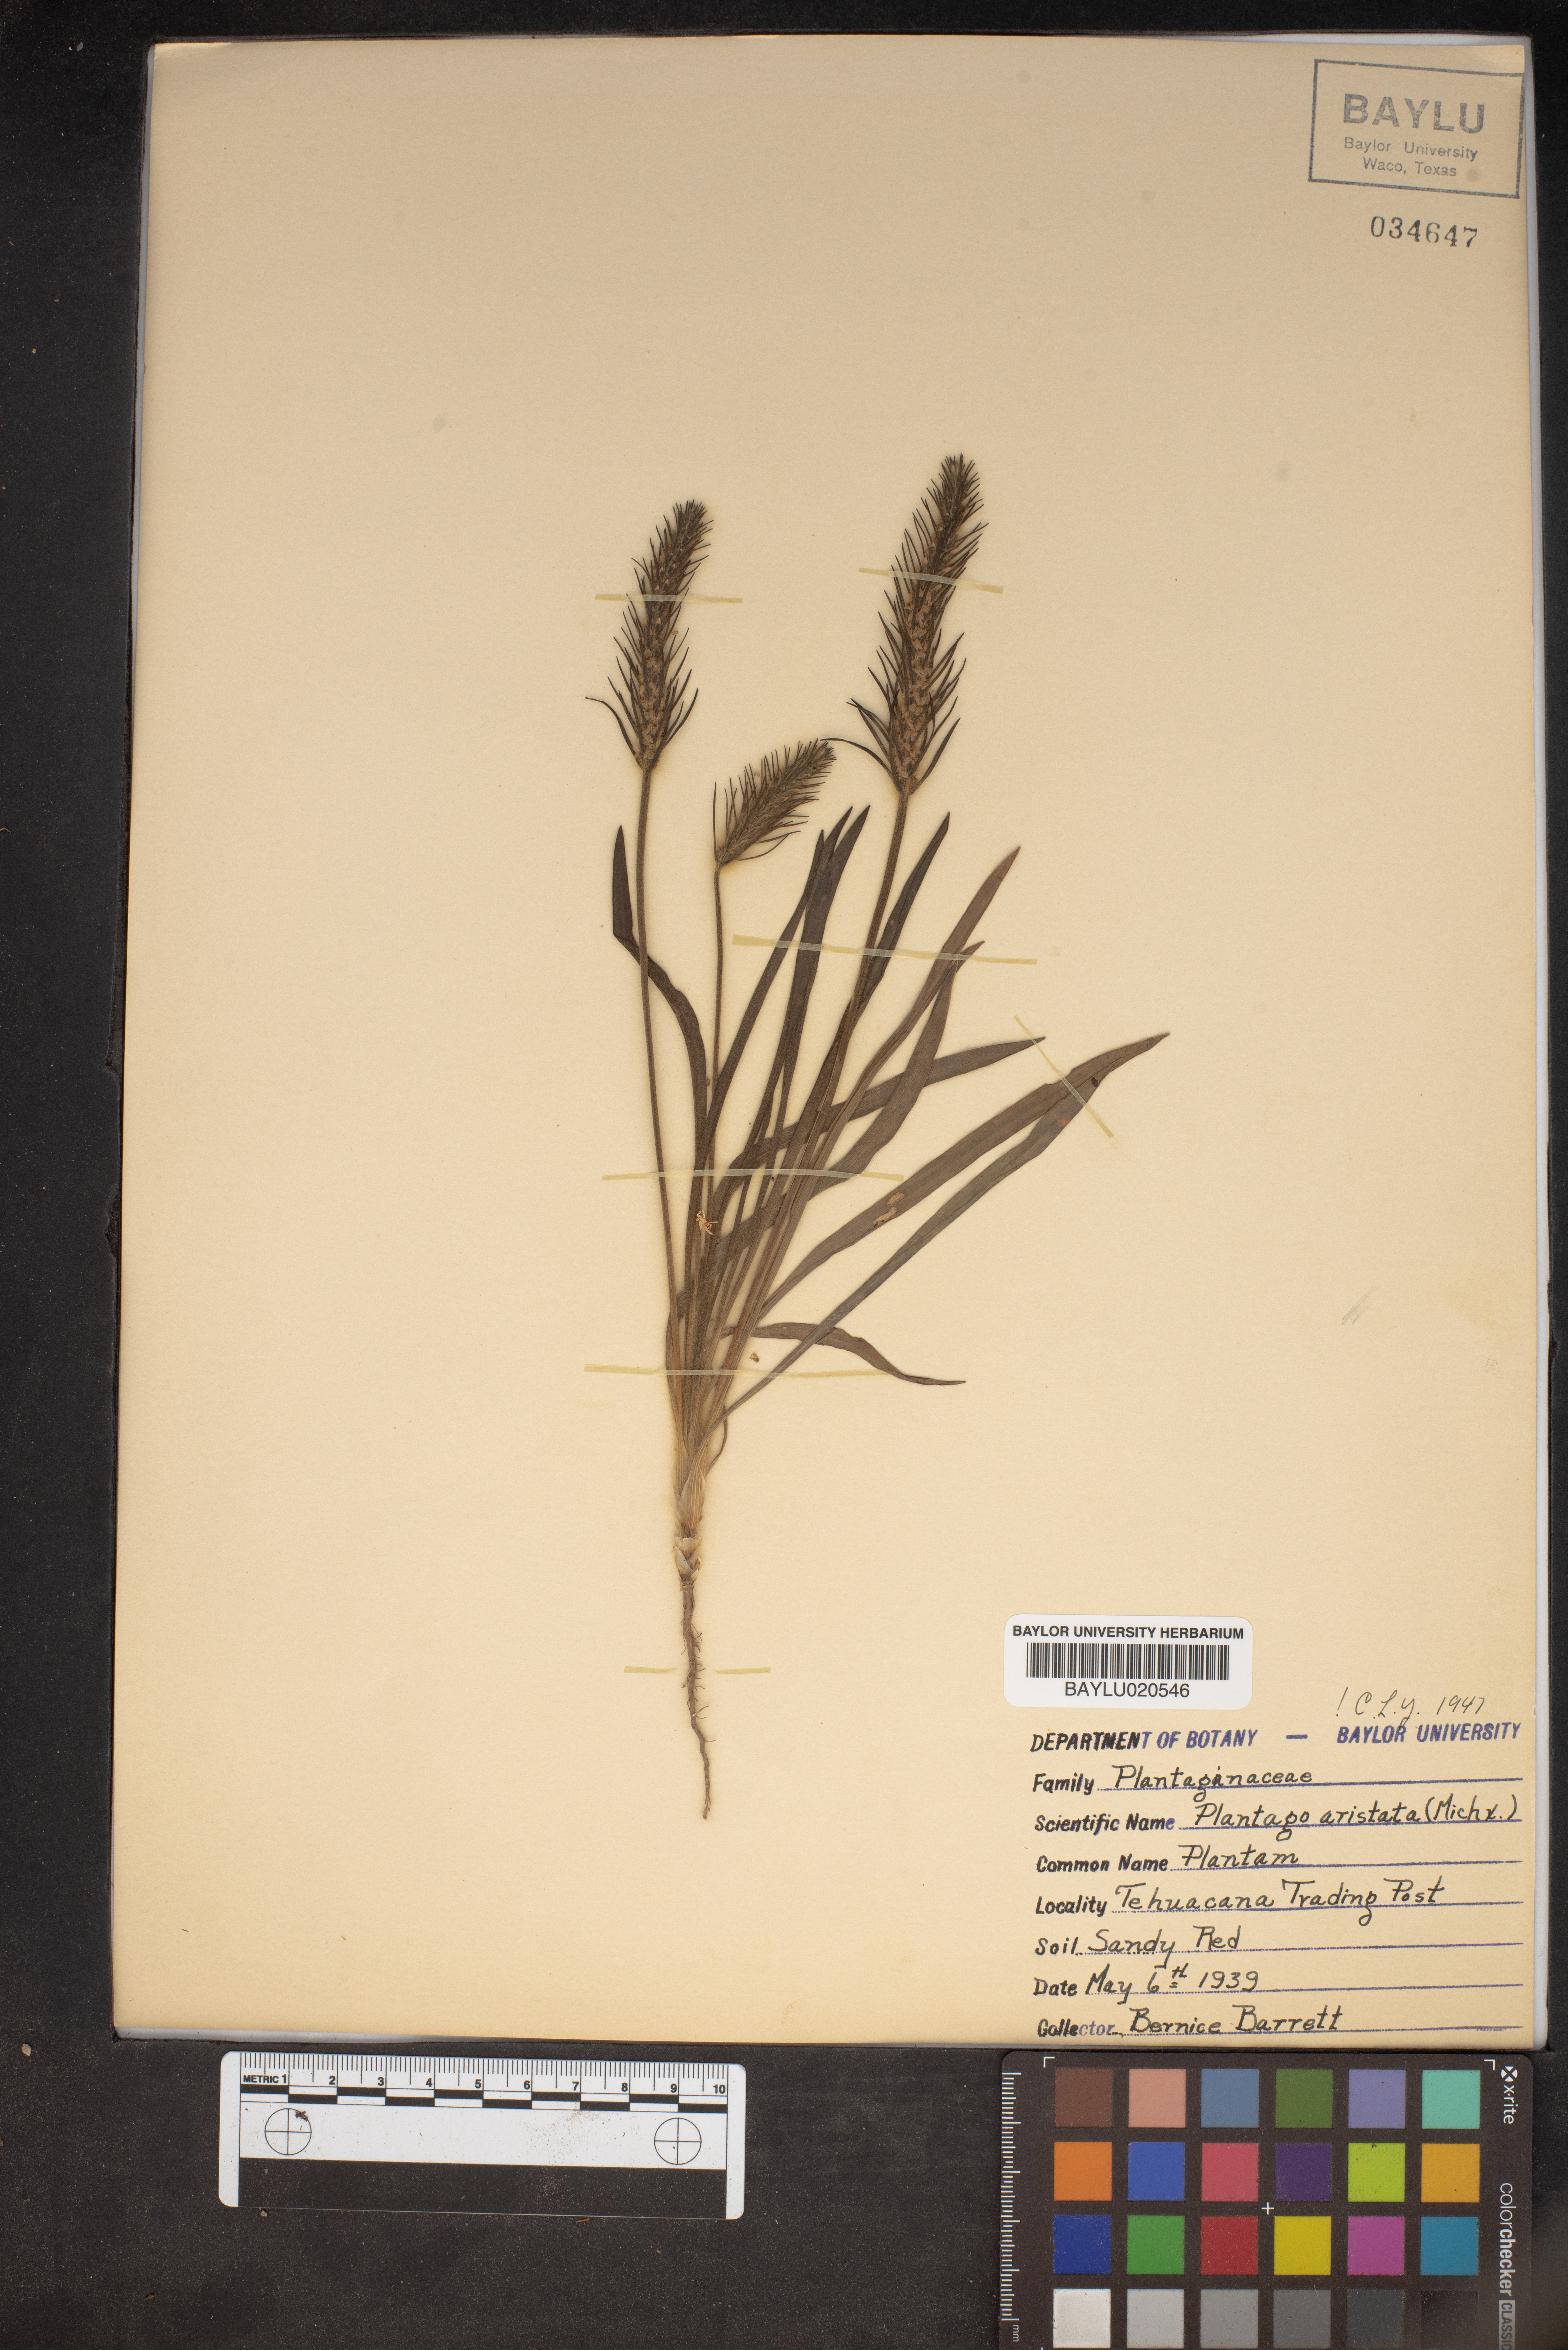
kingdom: Plantae
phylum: Tracheophyta
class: Magnoliopsida
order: Lamiales
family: Plantaginaceae
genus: Plantago
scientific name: Plantago aristata
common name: Bracted plantain
